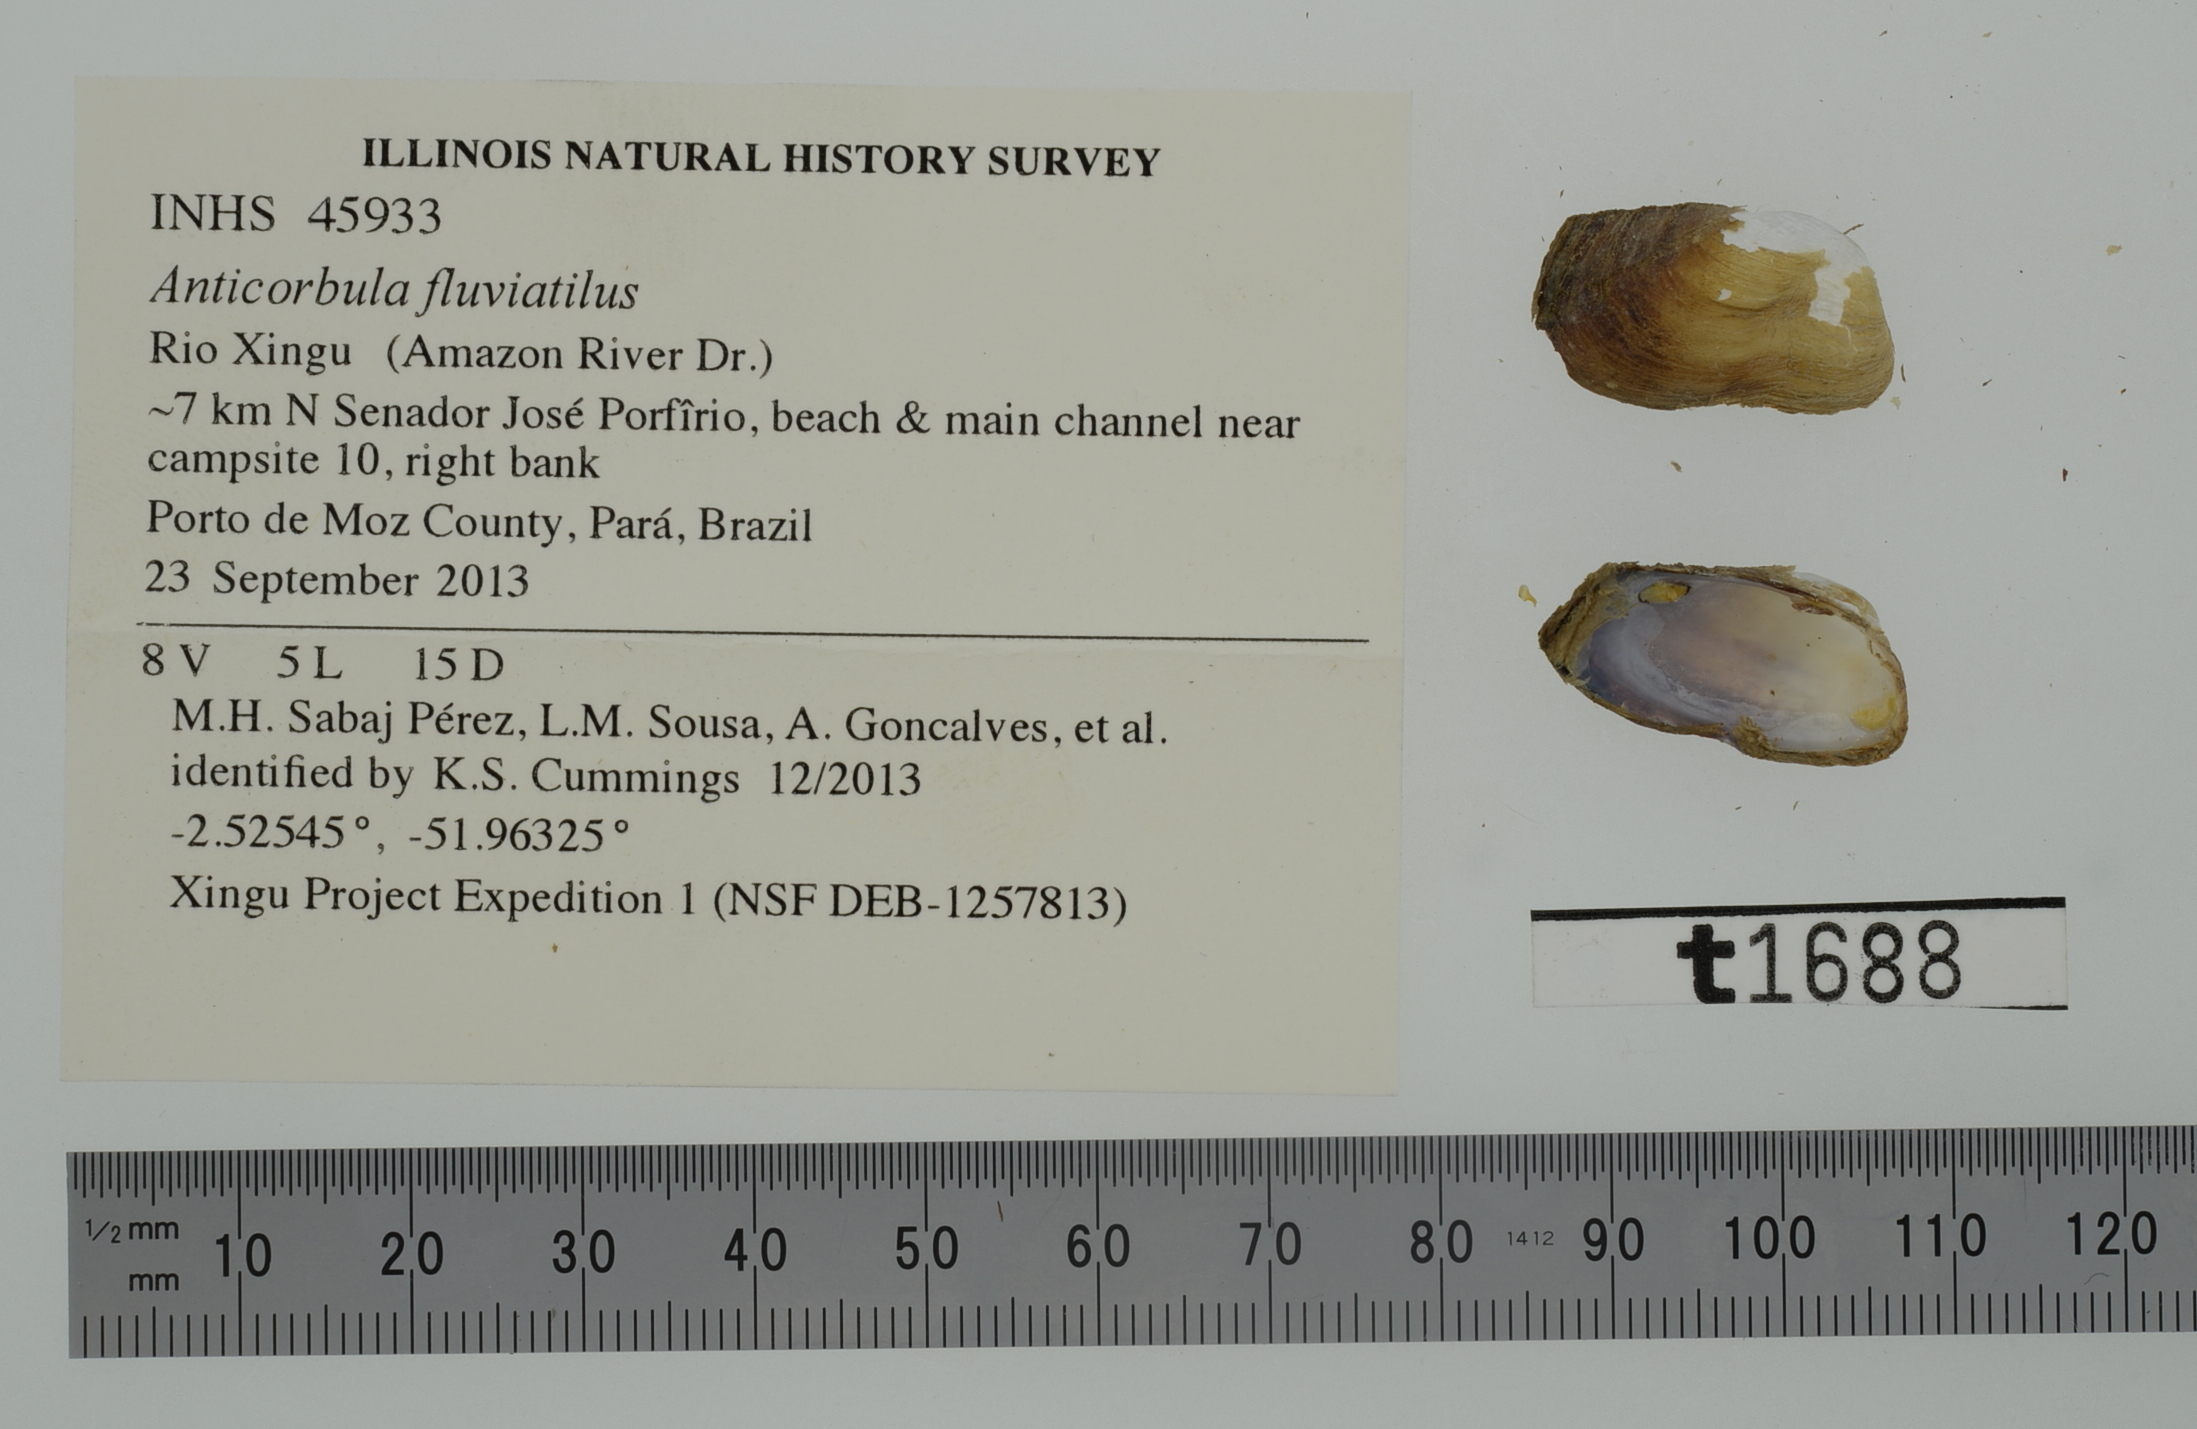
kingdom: Animalia
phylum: Mollusca
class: Gastropoda
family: Planorbidae
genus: Gyraulus
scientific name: Gyraulus deflectus
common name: Flexed gyro
